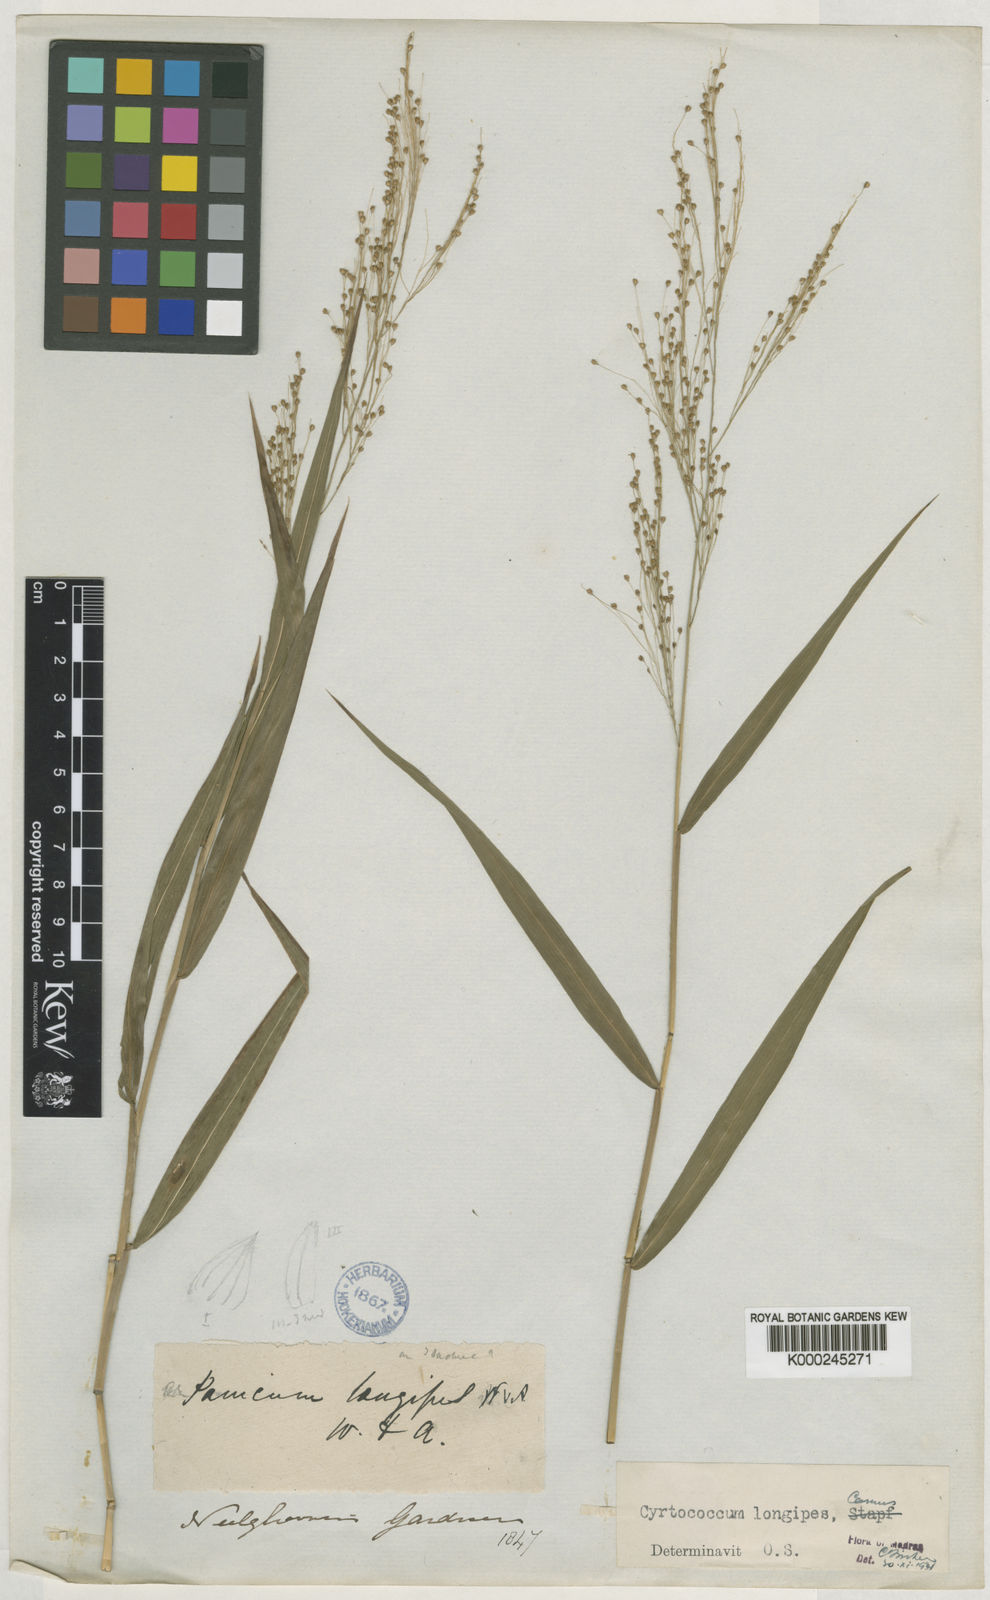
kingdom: Plantae
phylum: Tracheophyta
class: Liliopsida
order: Poales
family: Poaceae
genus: Cyrtococcum
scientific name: Cyrtococcum longipes
